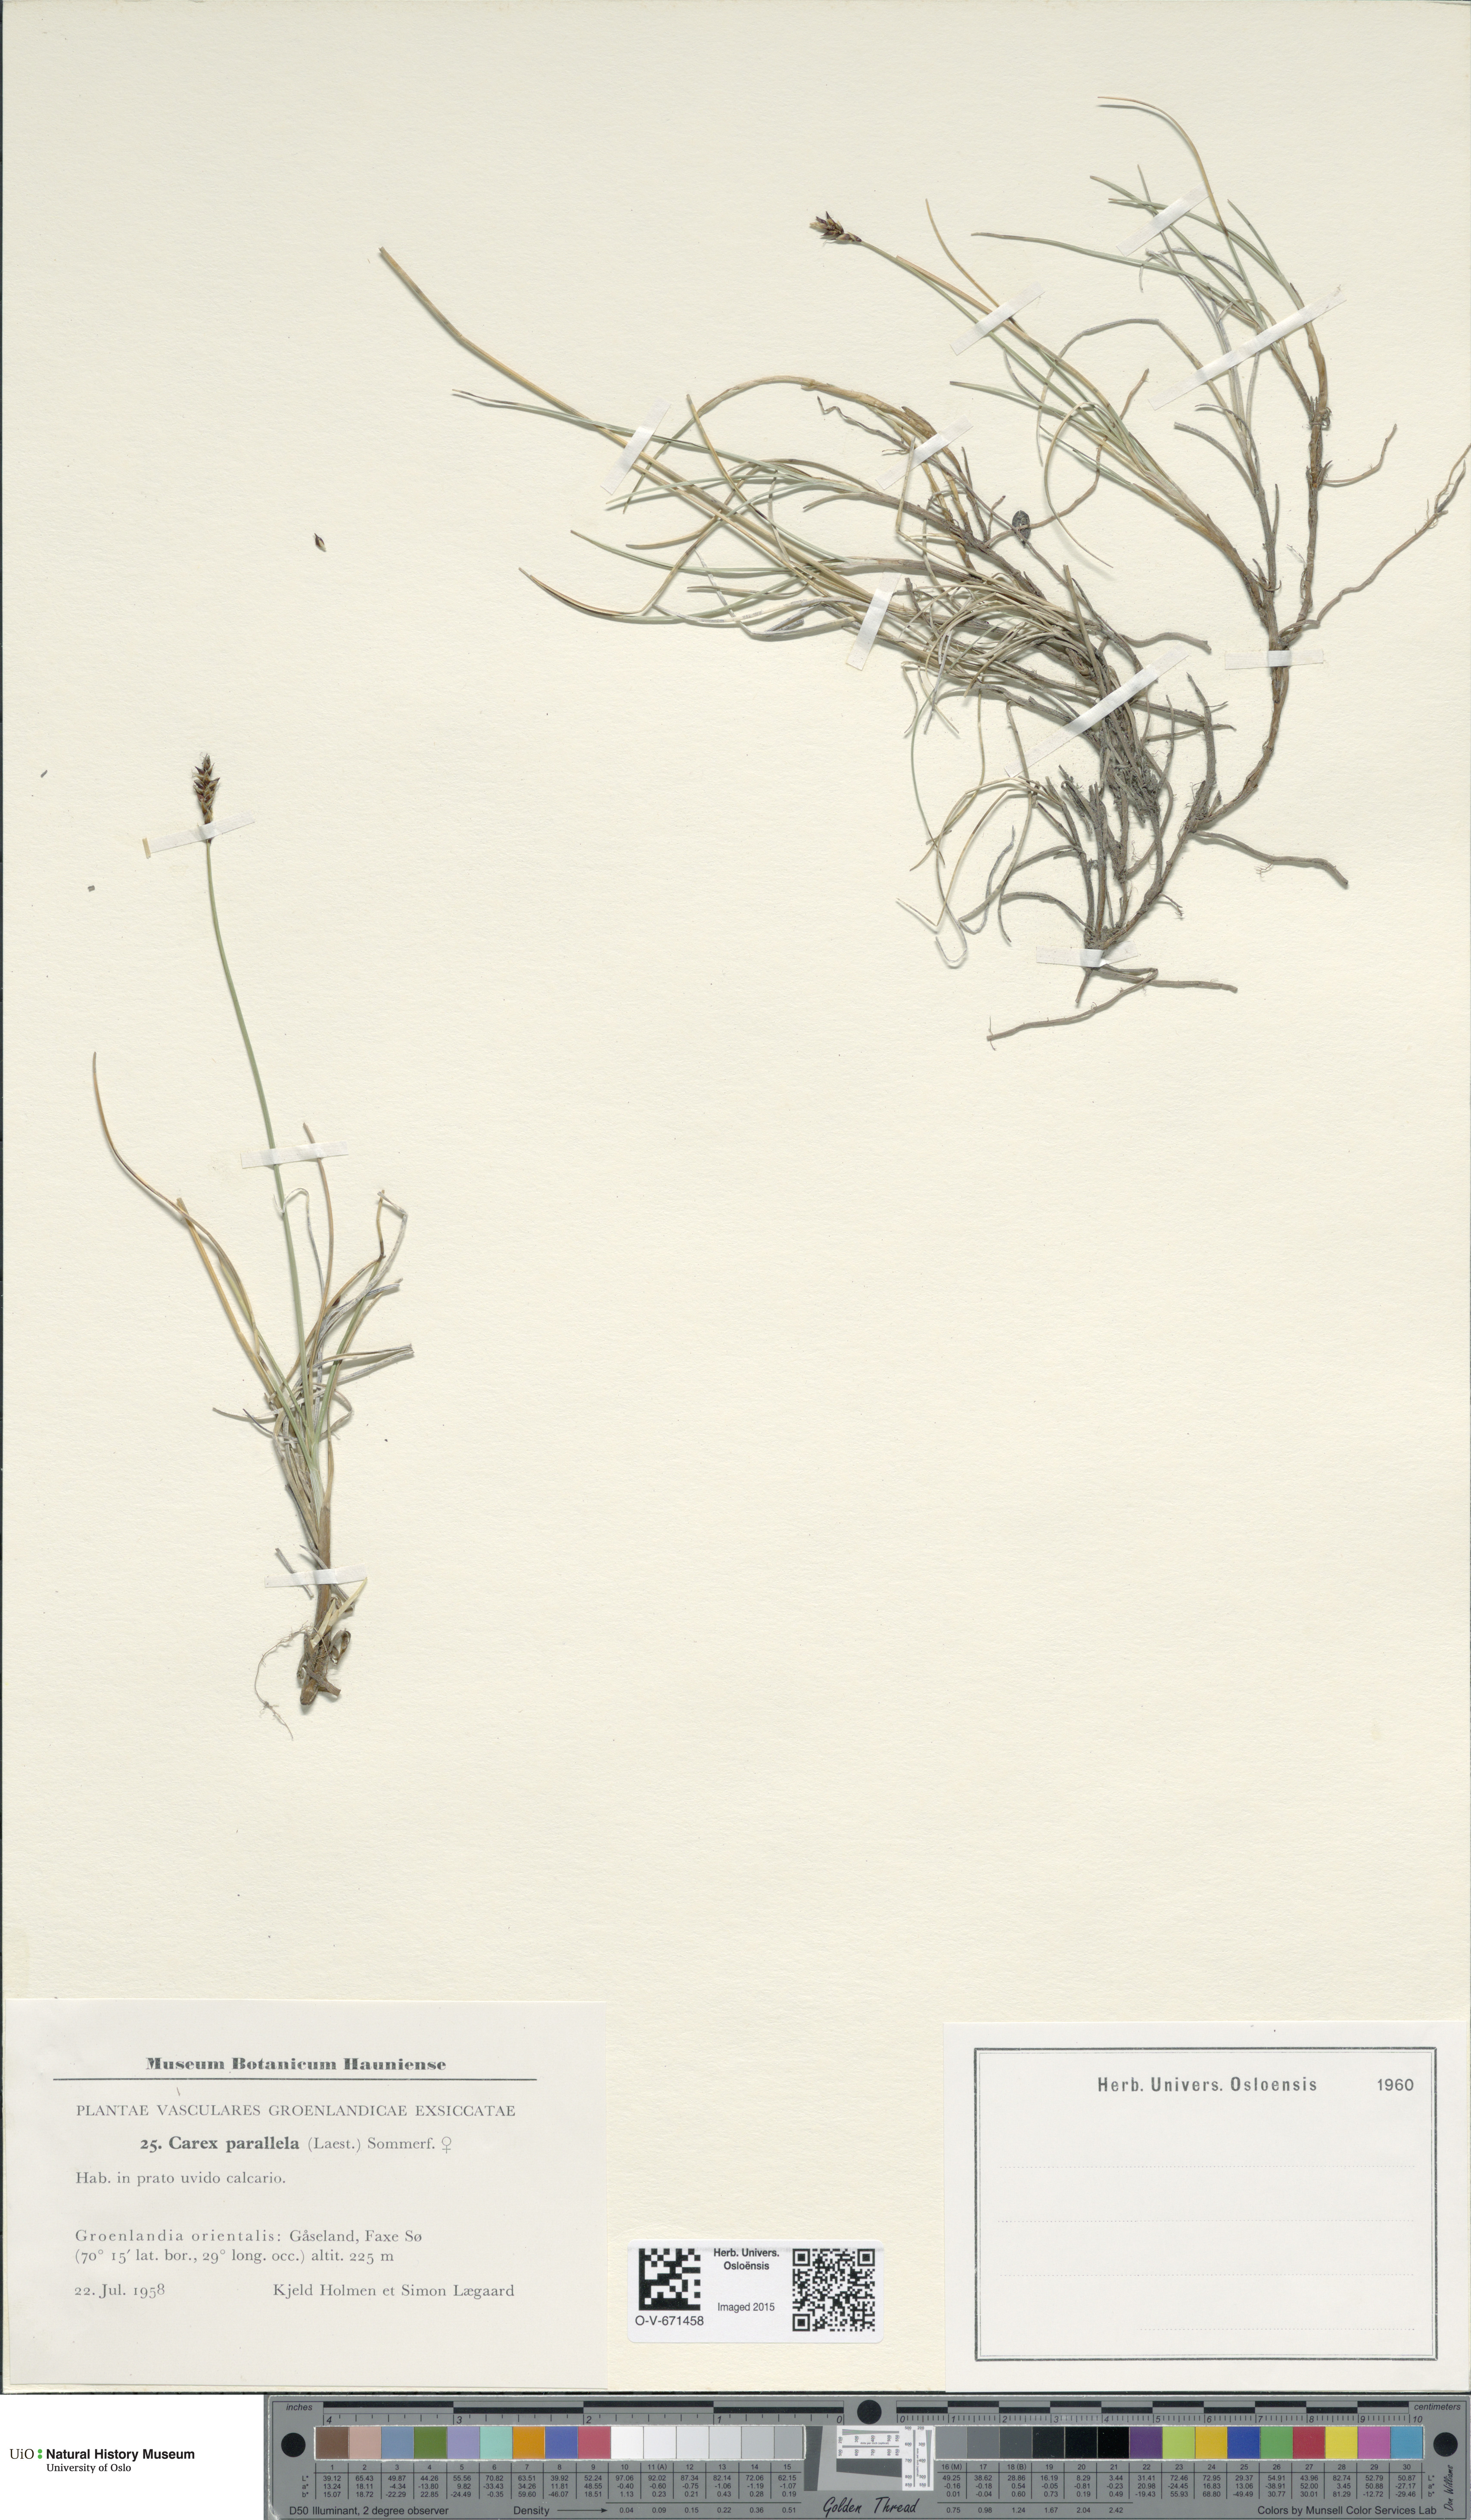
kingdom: Plantae
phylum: Tracheophyta
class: Liliopsida
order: Poales
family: Cyperaceae
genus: Carex
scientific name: Carex parallela
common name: Parallel sedge
